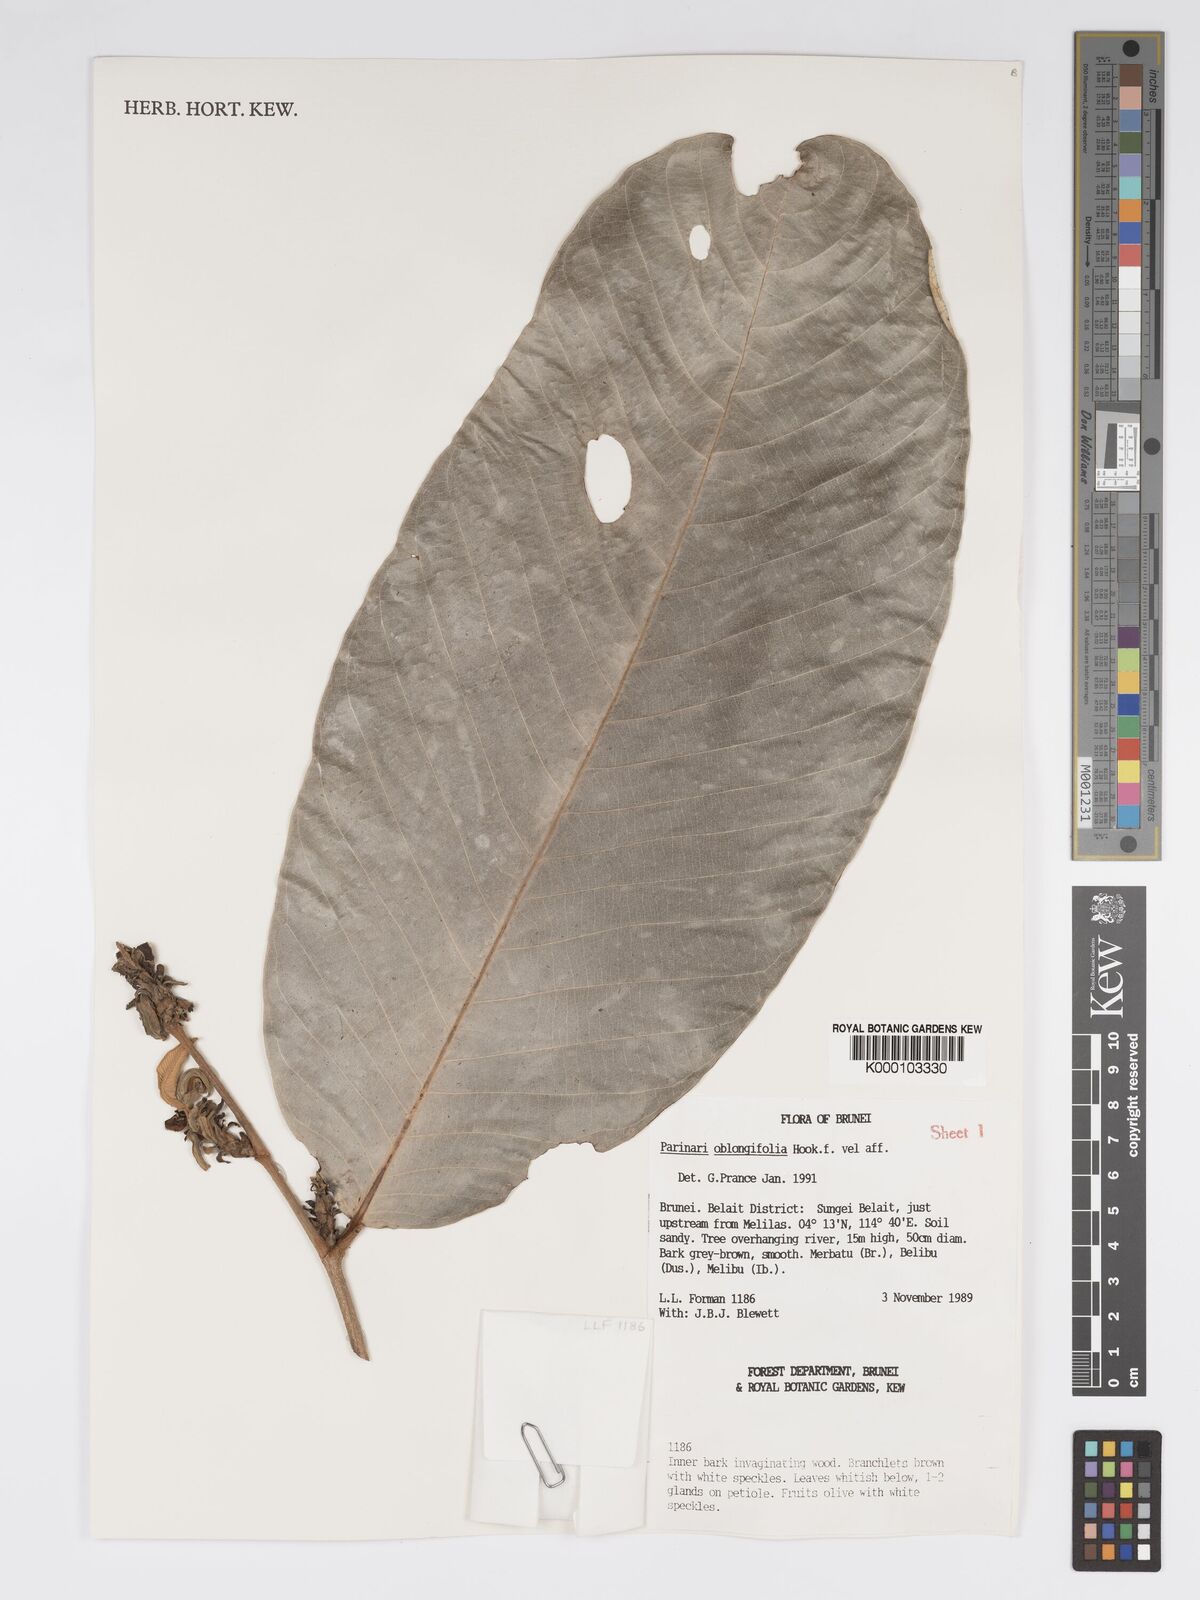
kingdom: Plantae
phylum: Tracheophyta
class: Magnoliopsida
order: Malpighiales
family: Chrysobalanaceae
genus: Parinari
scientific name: Parinari oblongifolia
